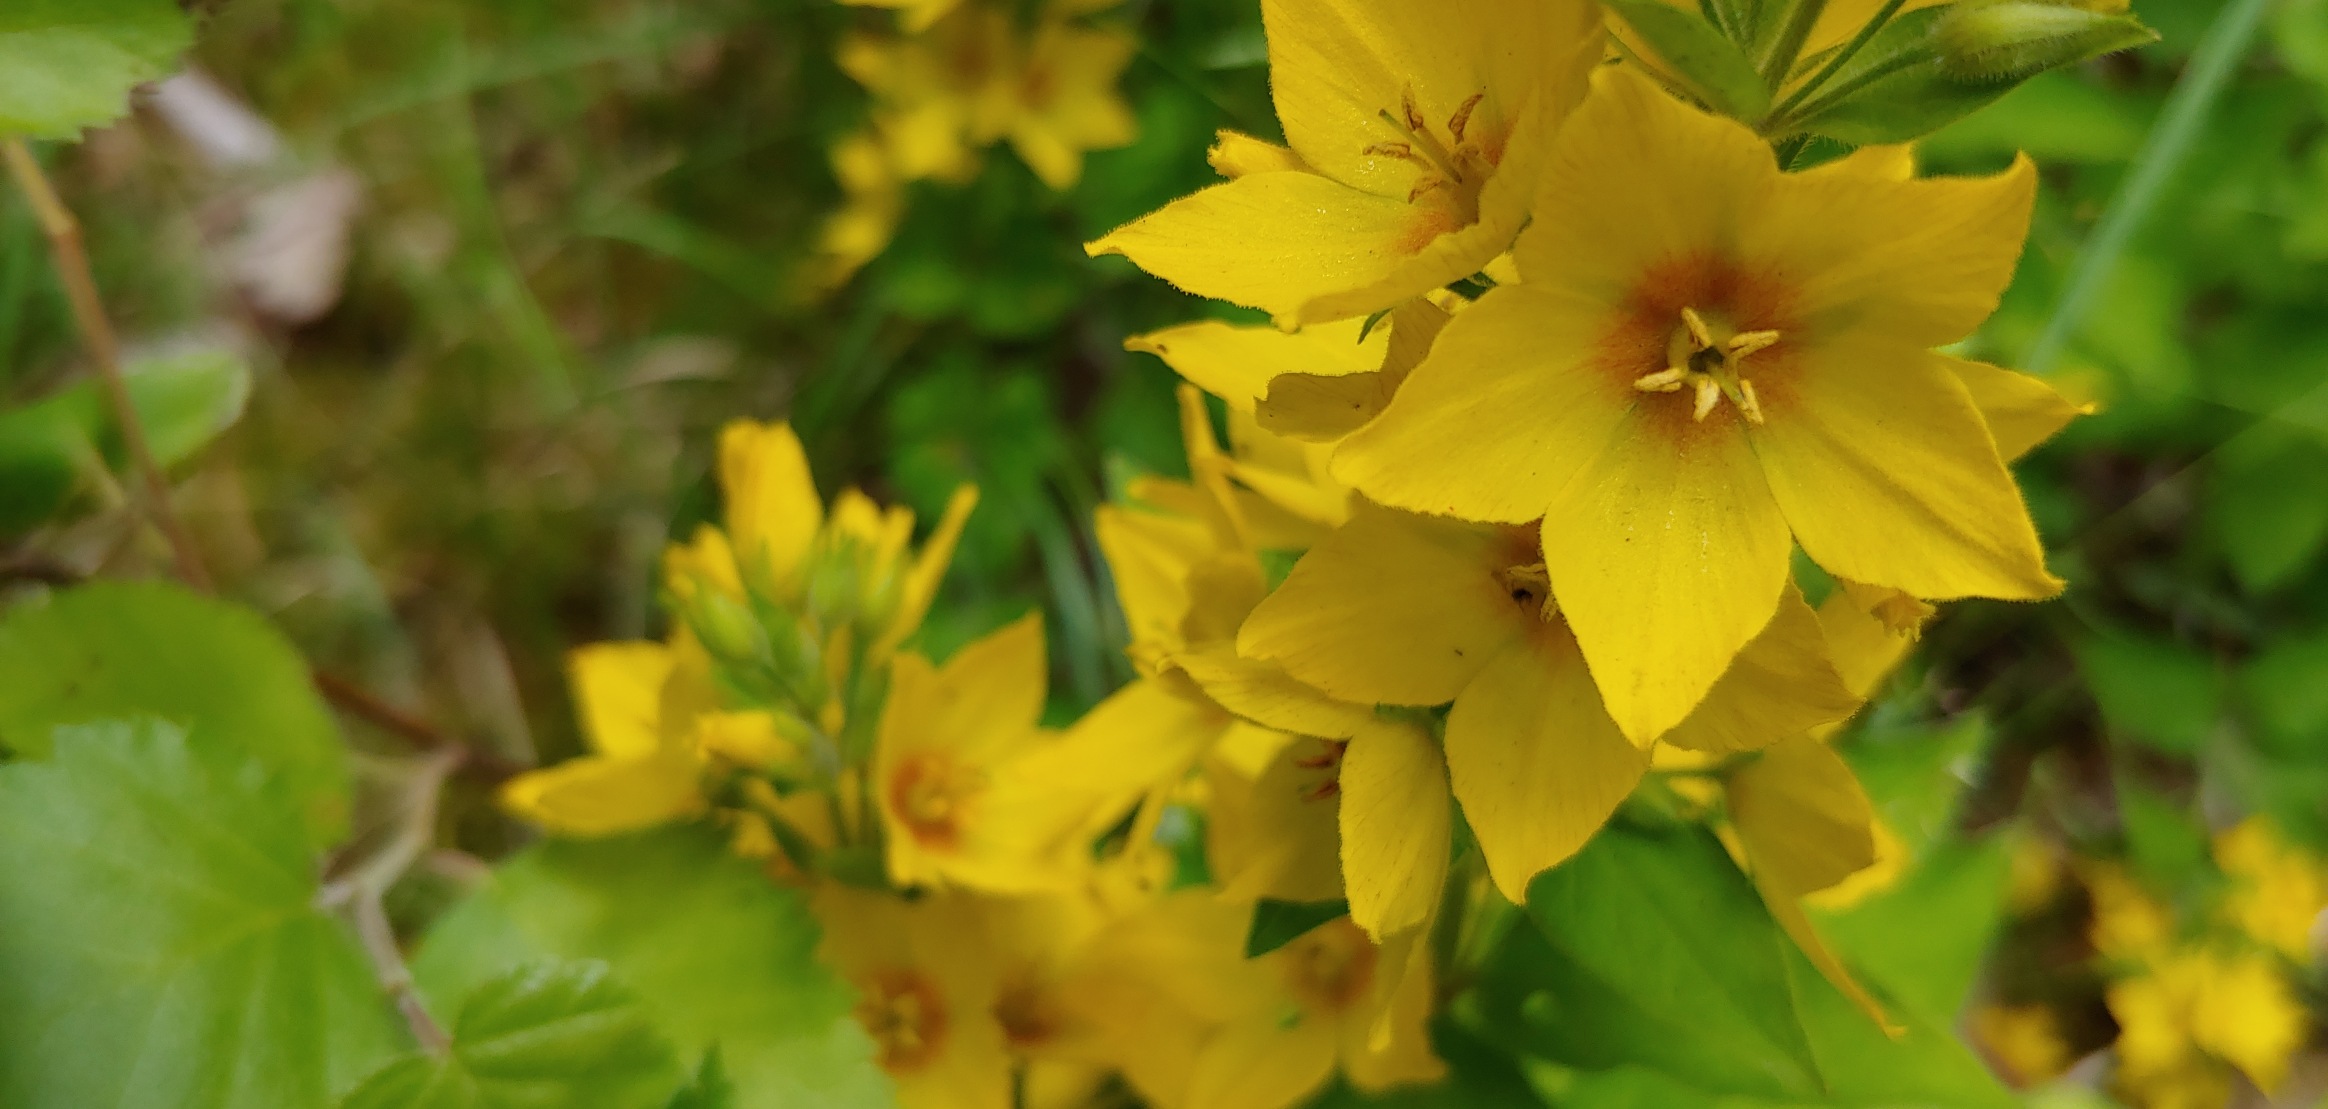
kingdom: Plantae
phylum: Tracheophyta
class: Magnoliopsida
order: Ericales
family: Primulaceae
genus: Lysimachia
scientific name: Lysimachia punctata
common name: Prikbladet fredløs
